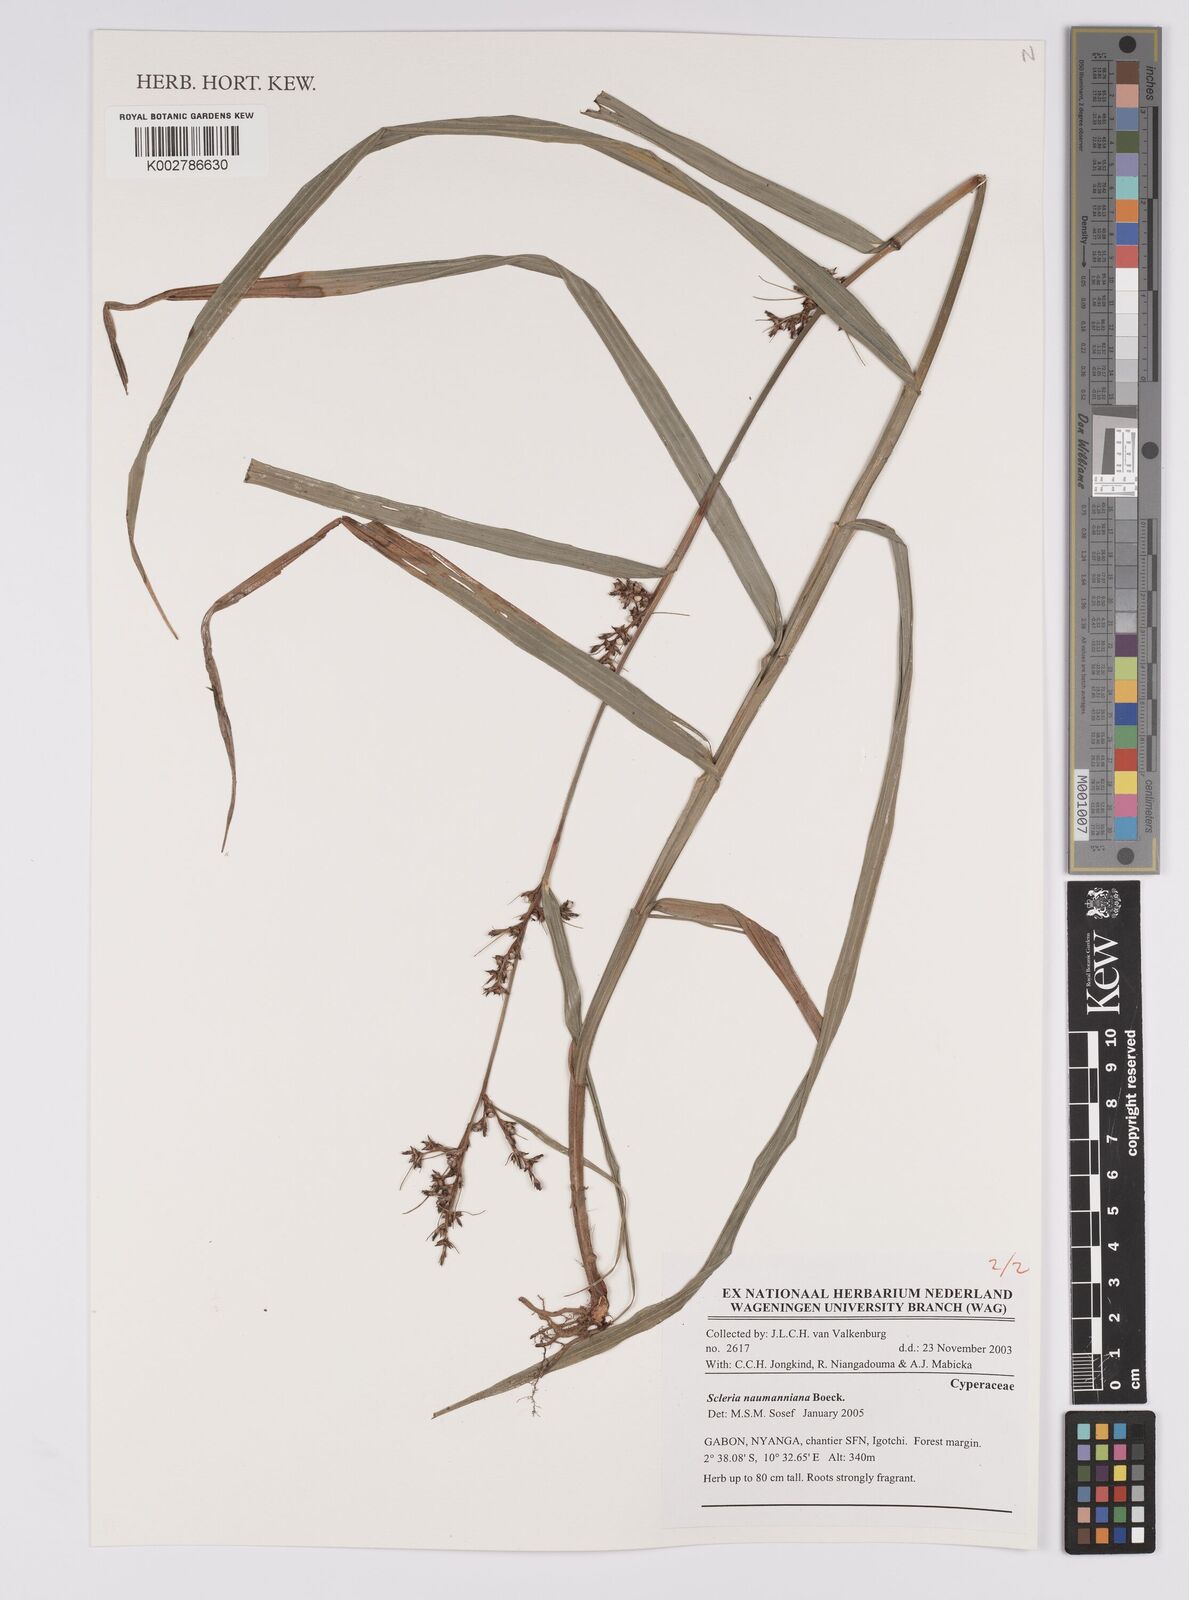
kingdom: Plantae
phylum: Tracheophyta
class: Liliopsida
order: Poales
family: Cyperaceae
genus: Scleria
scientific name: Scleria naumanniana
